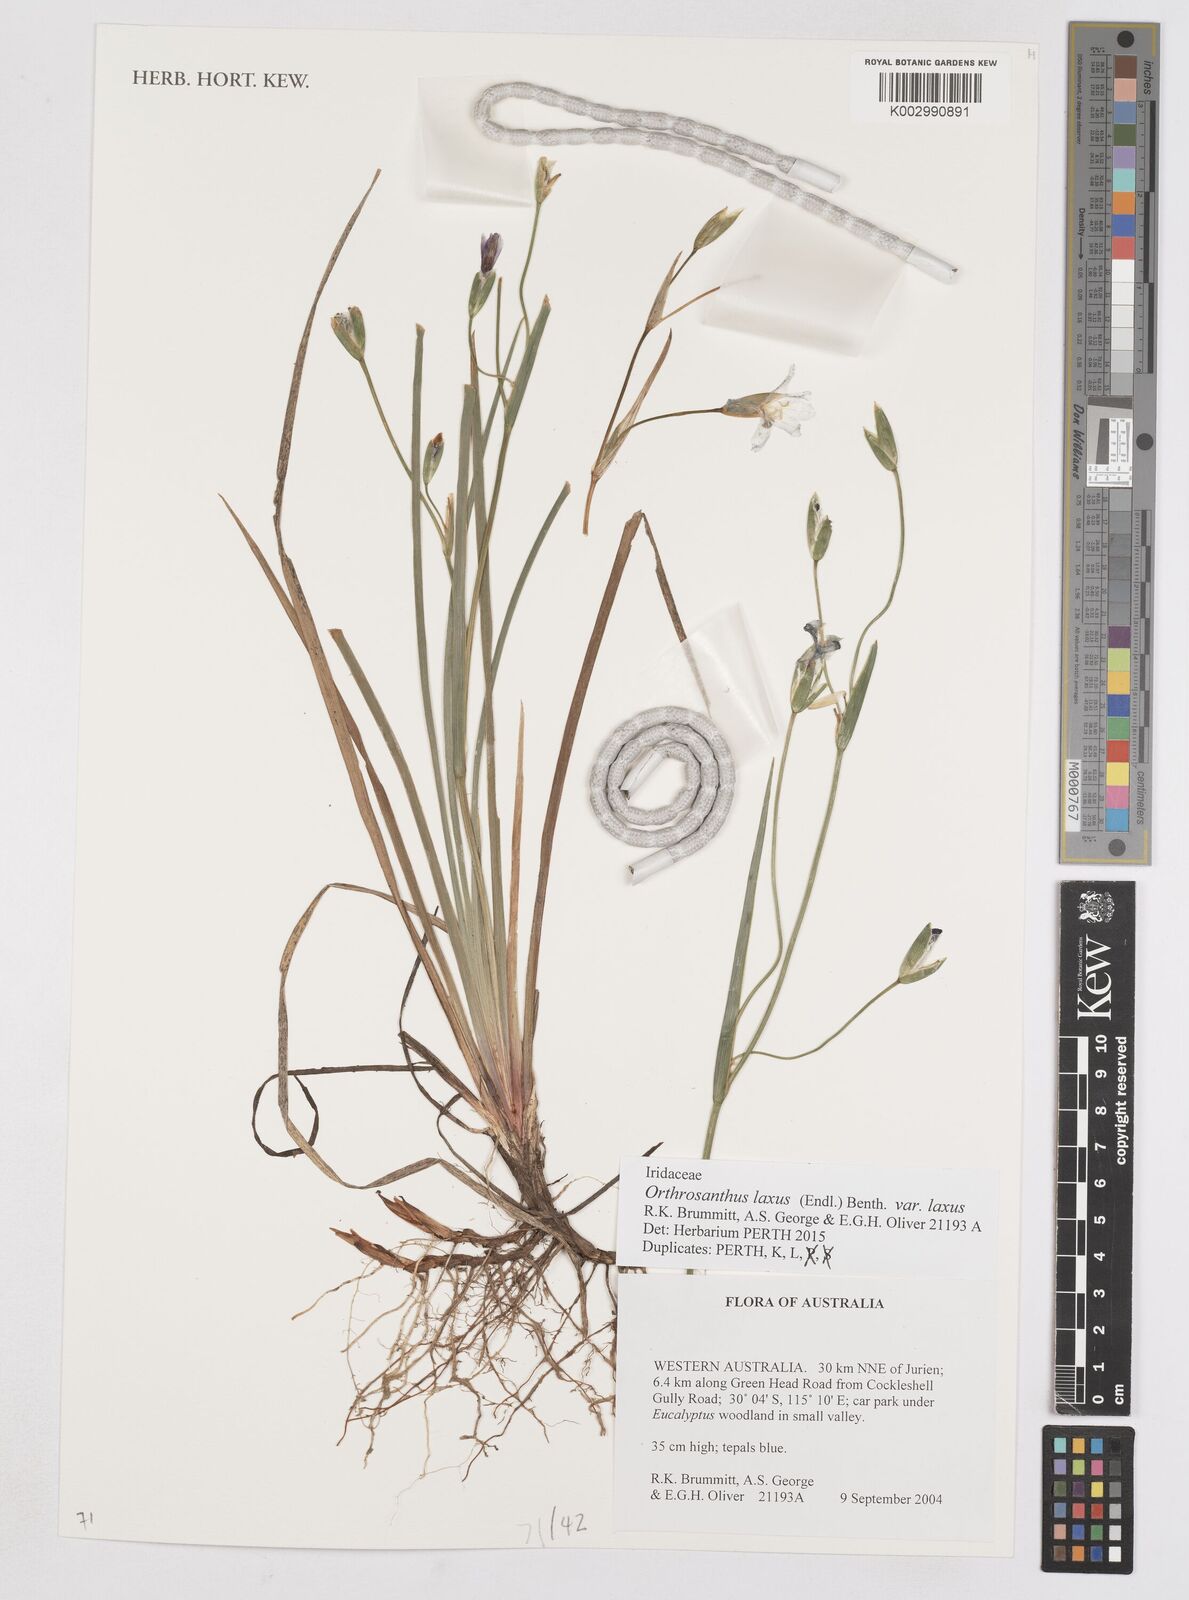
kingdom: Plantae
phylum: Tracheophyta
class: Liliopsida
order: Asparagales
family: Iridaceae
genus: Orthrosanthus
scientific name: Orthrosanthus laxus
